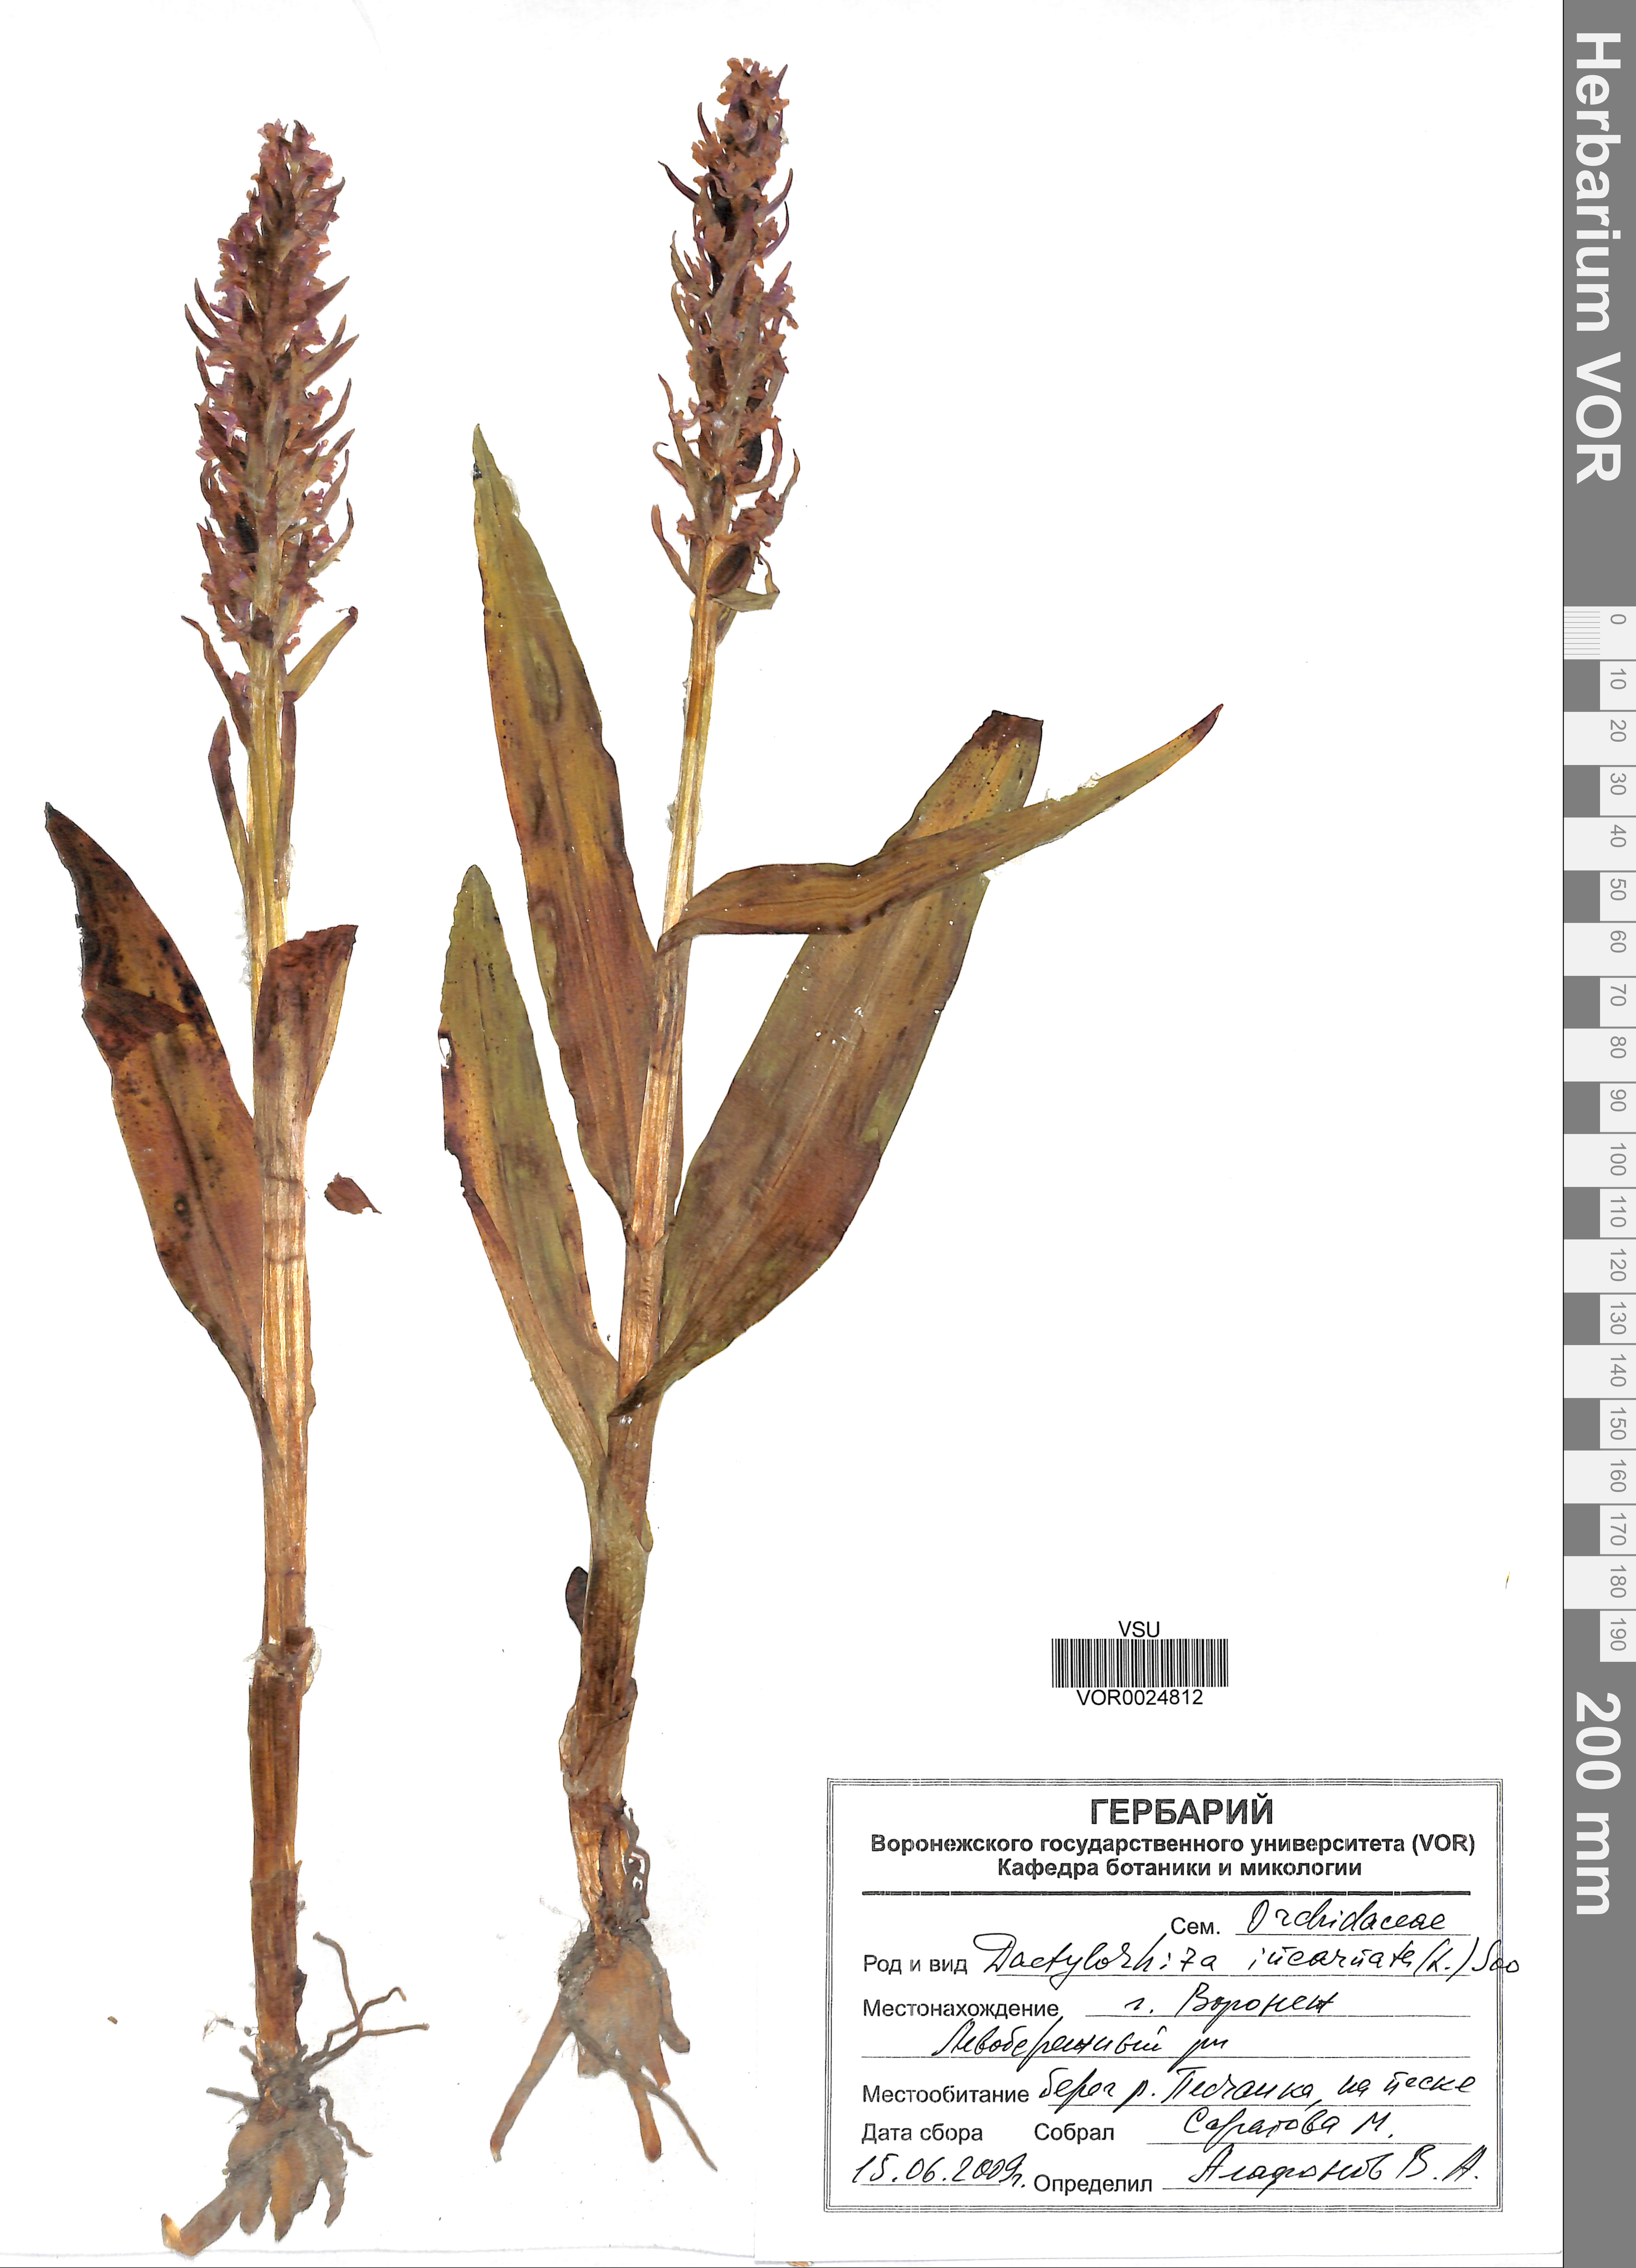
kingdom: Plantae
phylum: Tracheophyta
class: Liliopsida
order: Asparagales
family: Orchidaceae
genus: Dactylorhiza
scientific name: Dactylorhiza incarnata
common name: Early marsh-orchid
